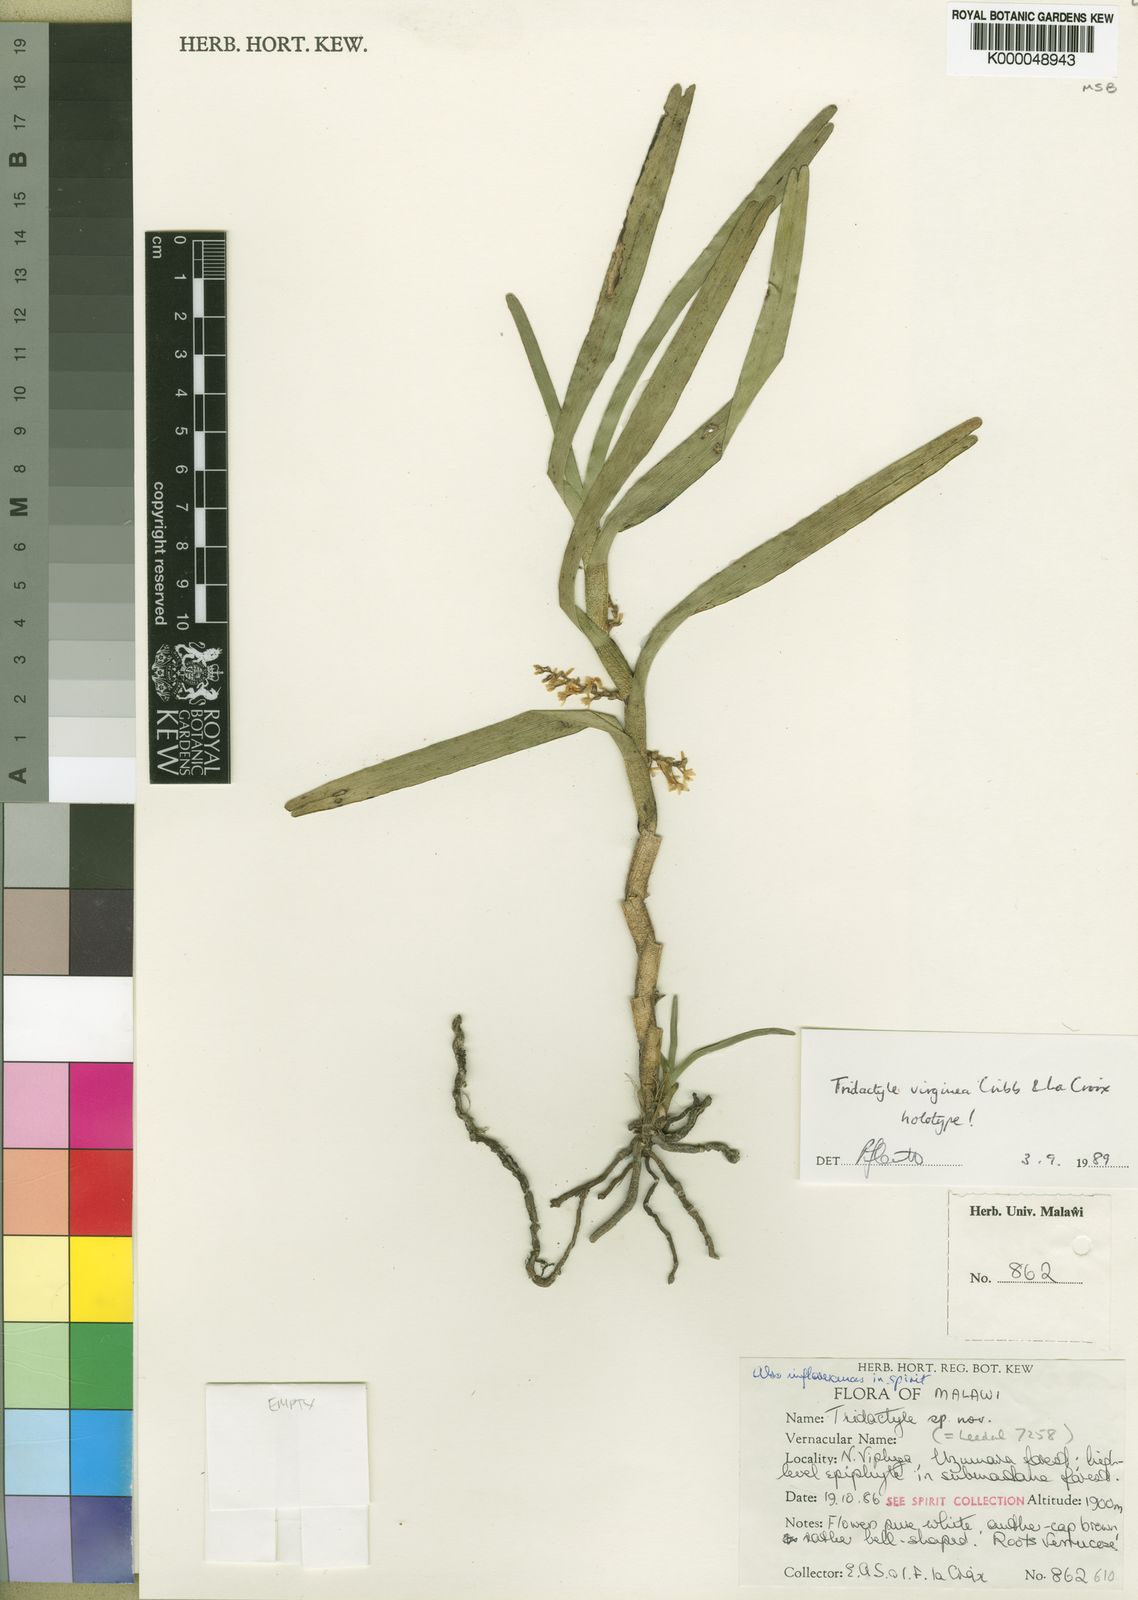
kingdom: Plantae
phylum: Tracheophyta
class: Liliopsida
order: Asparagales
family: Orchidaceae
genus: Tridactyle
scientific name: Tridactyle virginea
